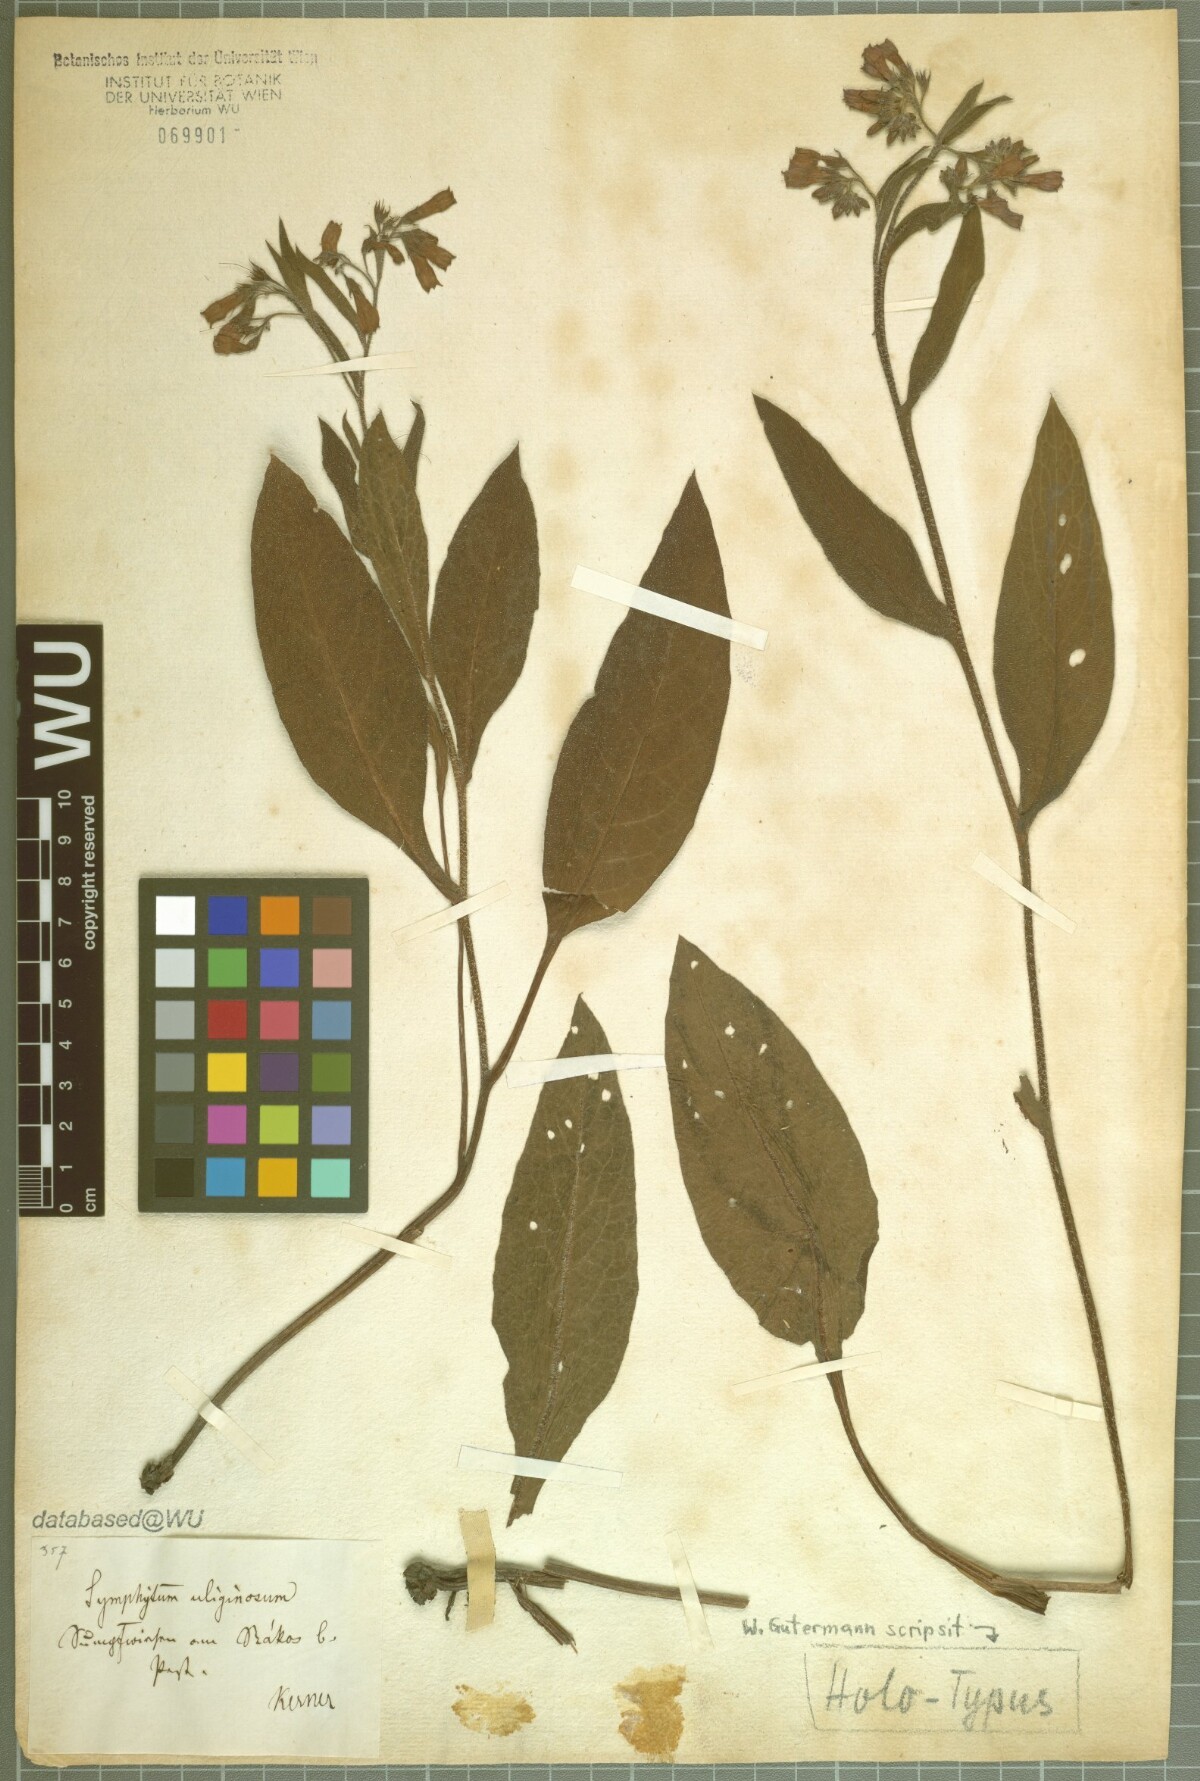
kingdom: Plantae
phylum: Tracheophyta
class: Magnoliopsida
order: Boraginales
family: Boraginaceae
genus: Symphytum
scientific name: Symphytum tanaicense
